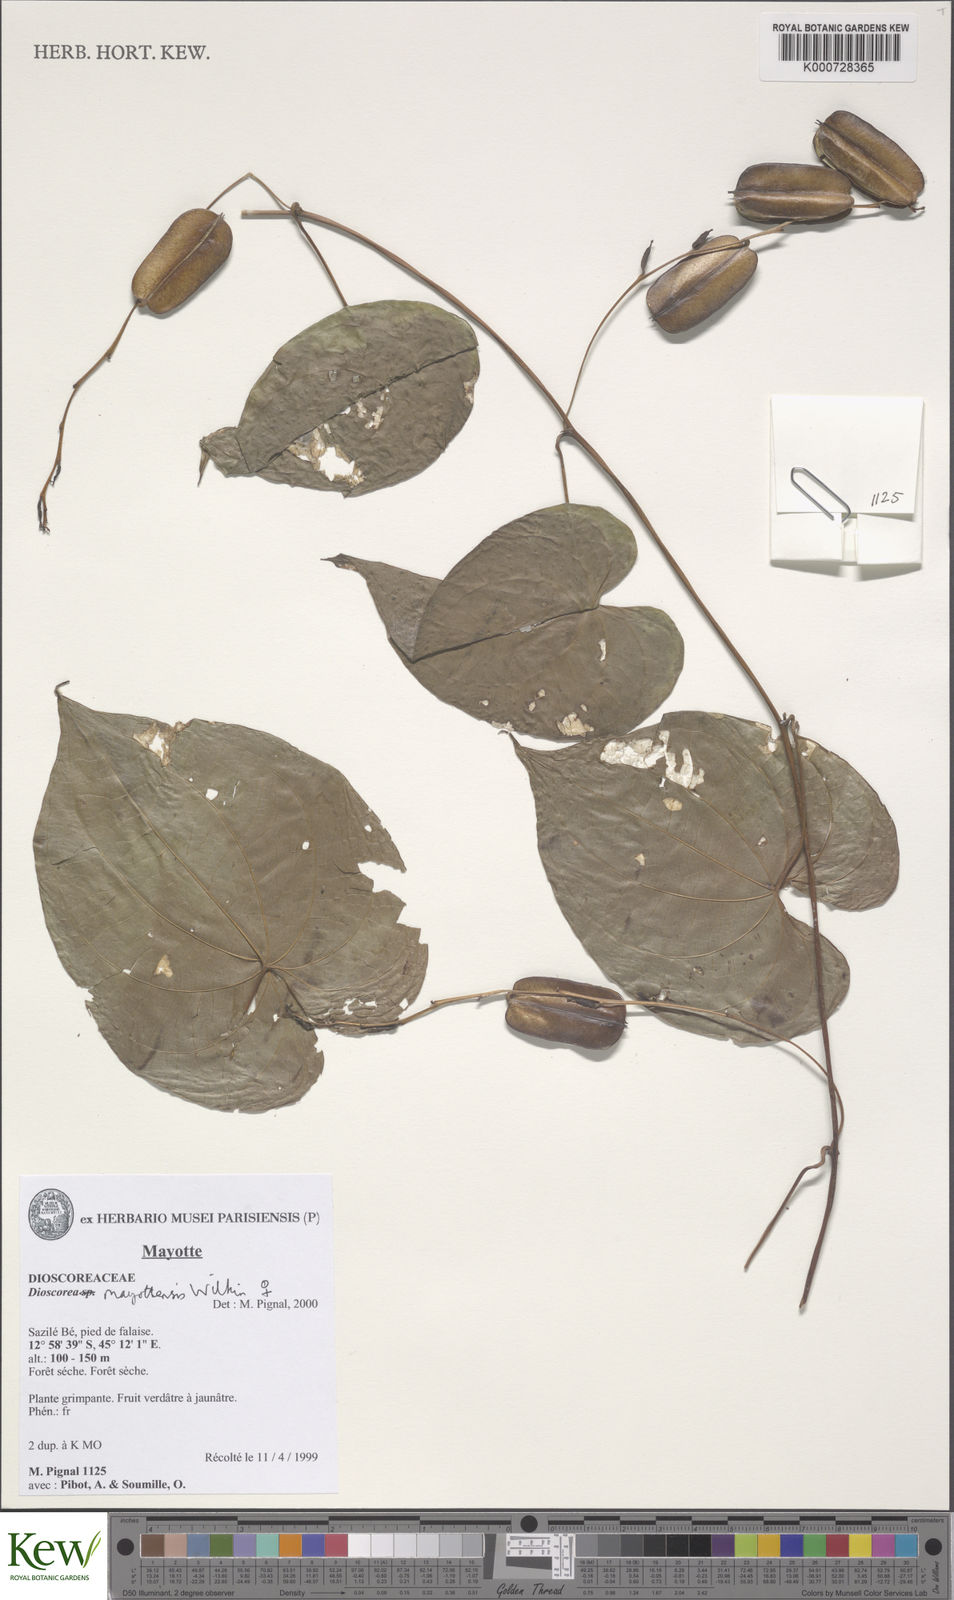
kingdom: Plantae
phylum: Tracheophyta
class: Liliopsida
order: Dioscoreales
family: Dioscoreaceae
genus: Dioscorea
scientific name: Dioscorea mayottensis
